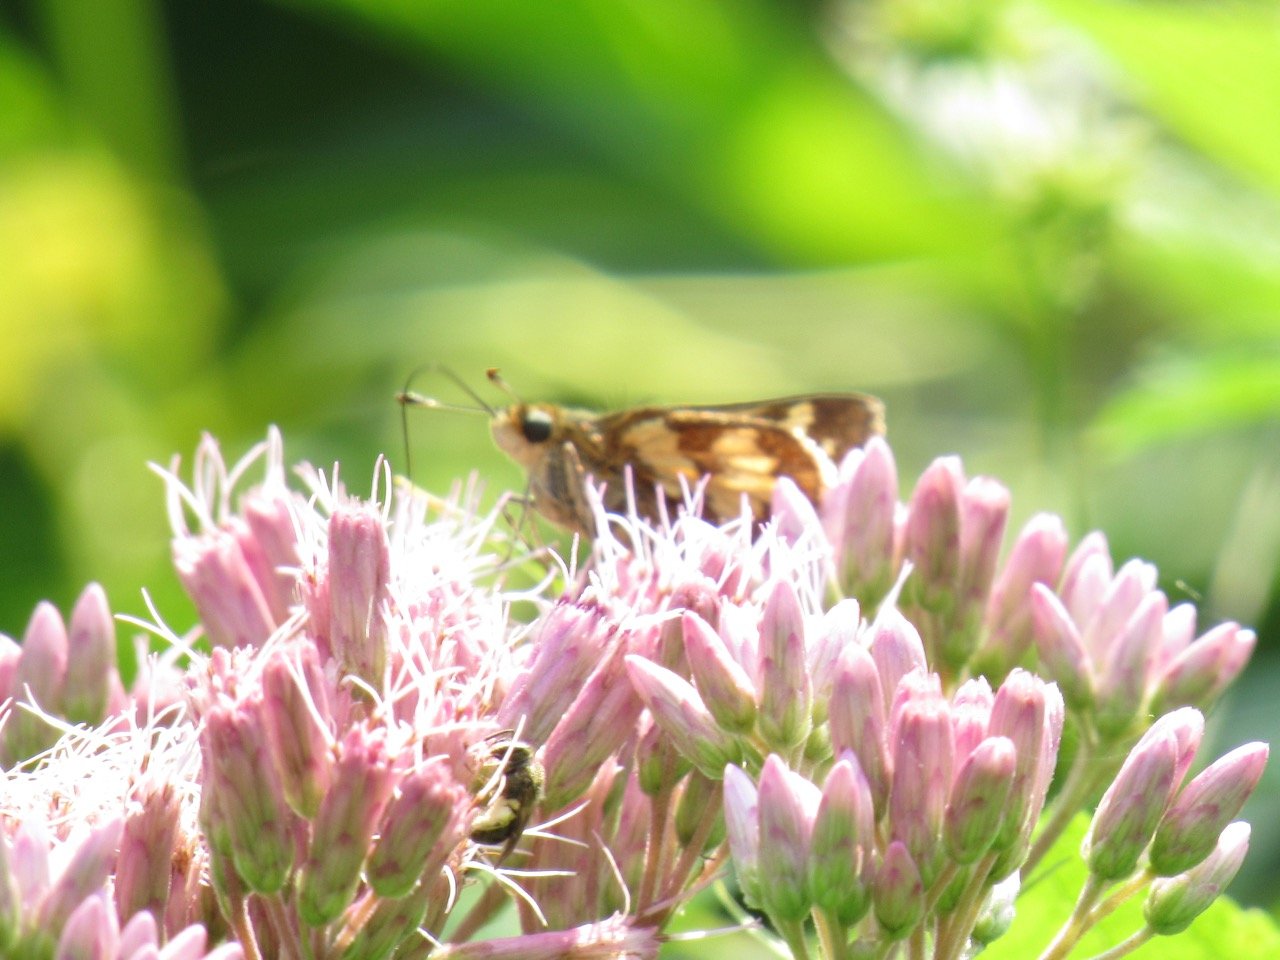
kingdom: Animalia
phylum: Arthropoda
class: Insecta
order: Lepidoptera
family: Hesperiidae
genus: Polites
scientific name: Polites coras
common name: Peck's Skipper
